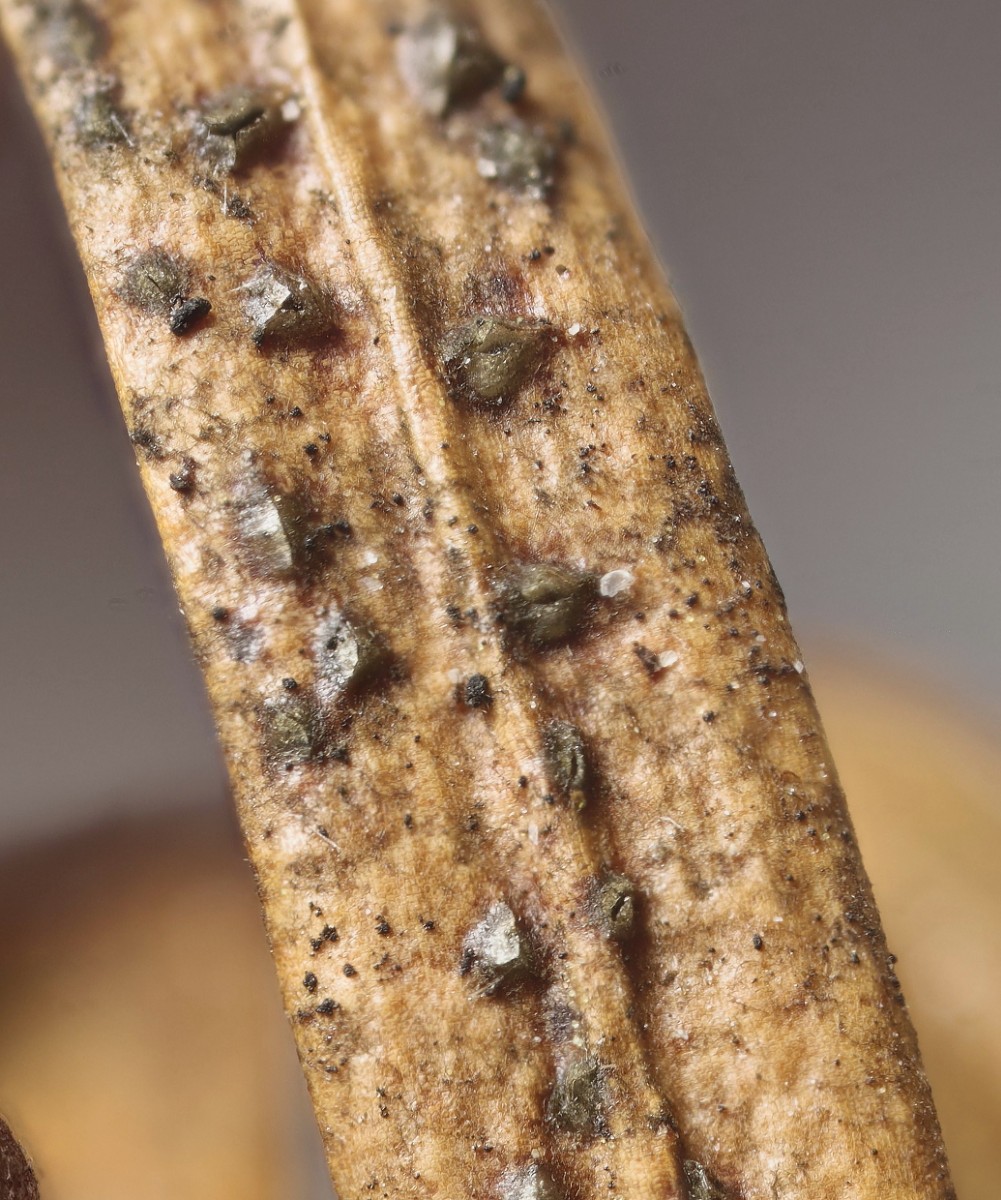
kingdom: Fungi
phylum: Ascomycota
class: Leotiomycetes
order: Helotiales
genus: Cryptocline
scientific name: Cryptocline taxicola
